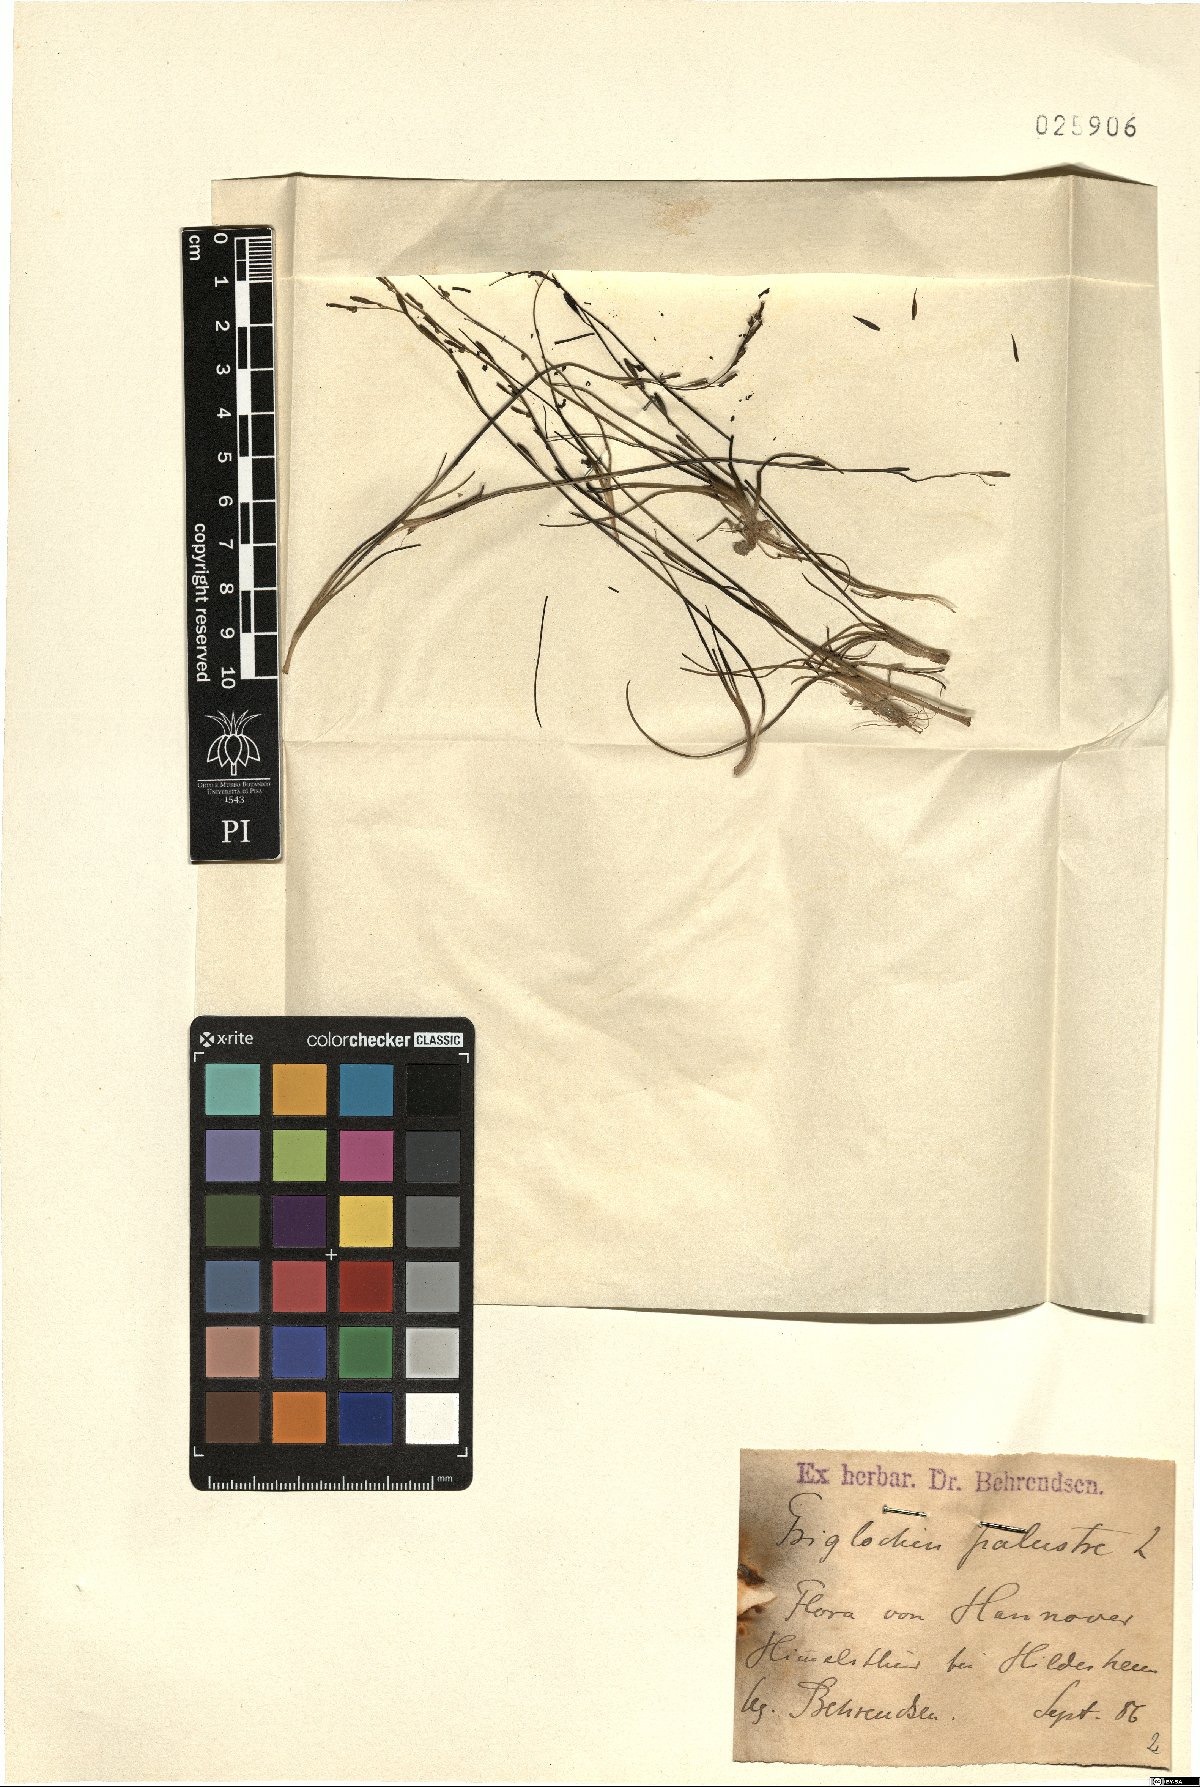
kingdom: Plantae
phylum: Tracheophyta
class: Liliopsida
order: Alismatales
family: Juncaginaceae
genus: Triglochin
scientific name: Triglochin palustris
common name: Marsh arrowgrass
